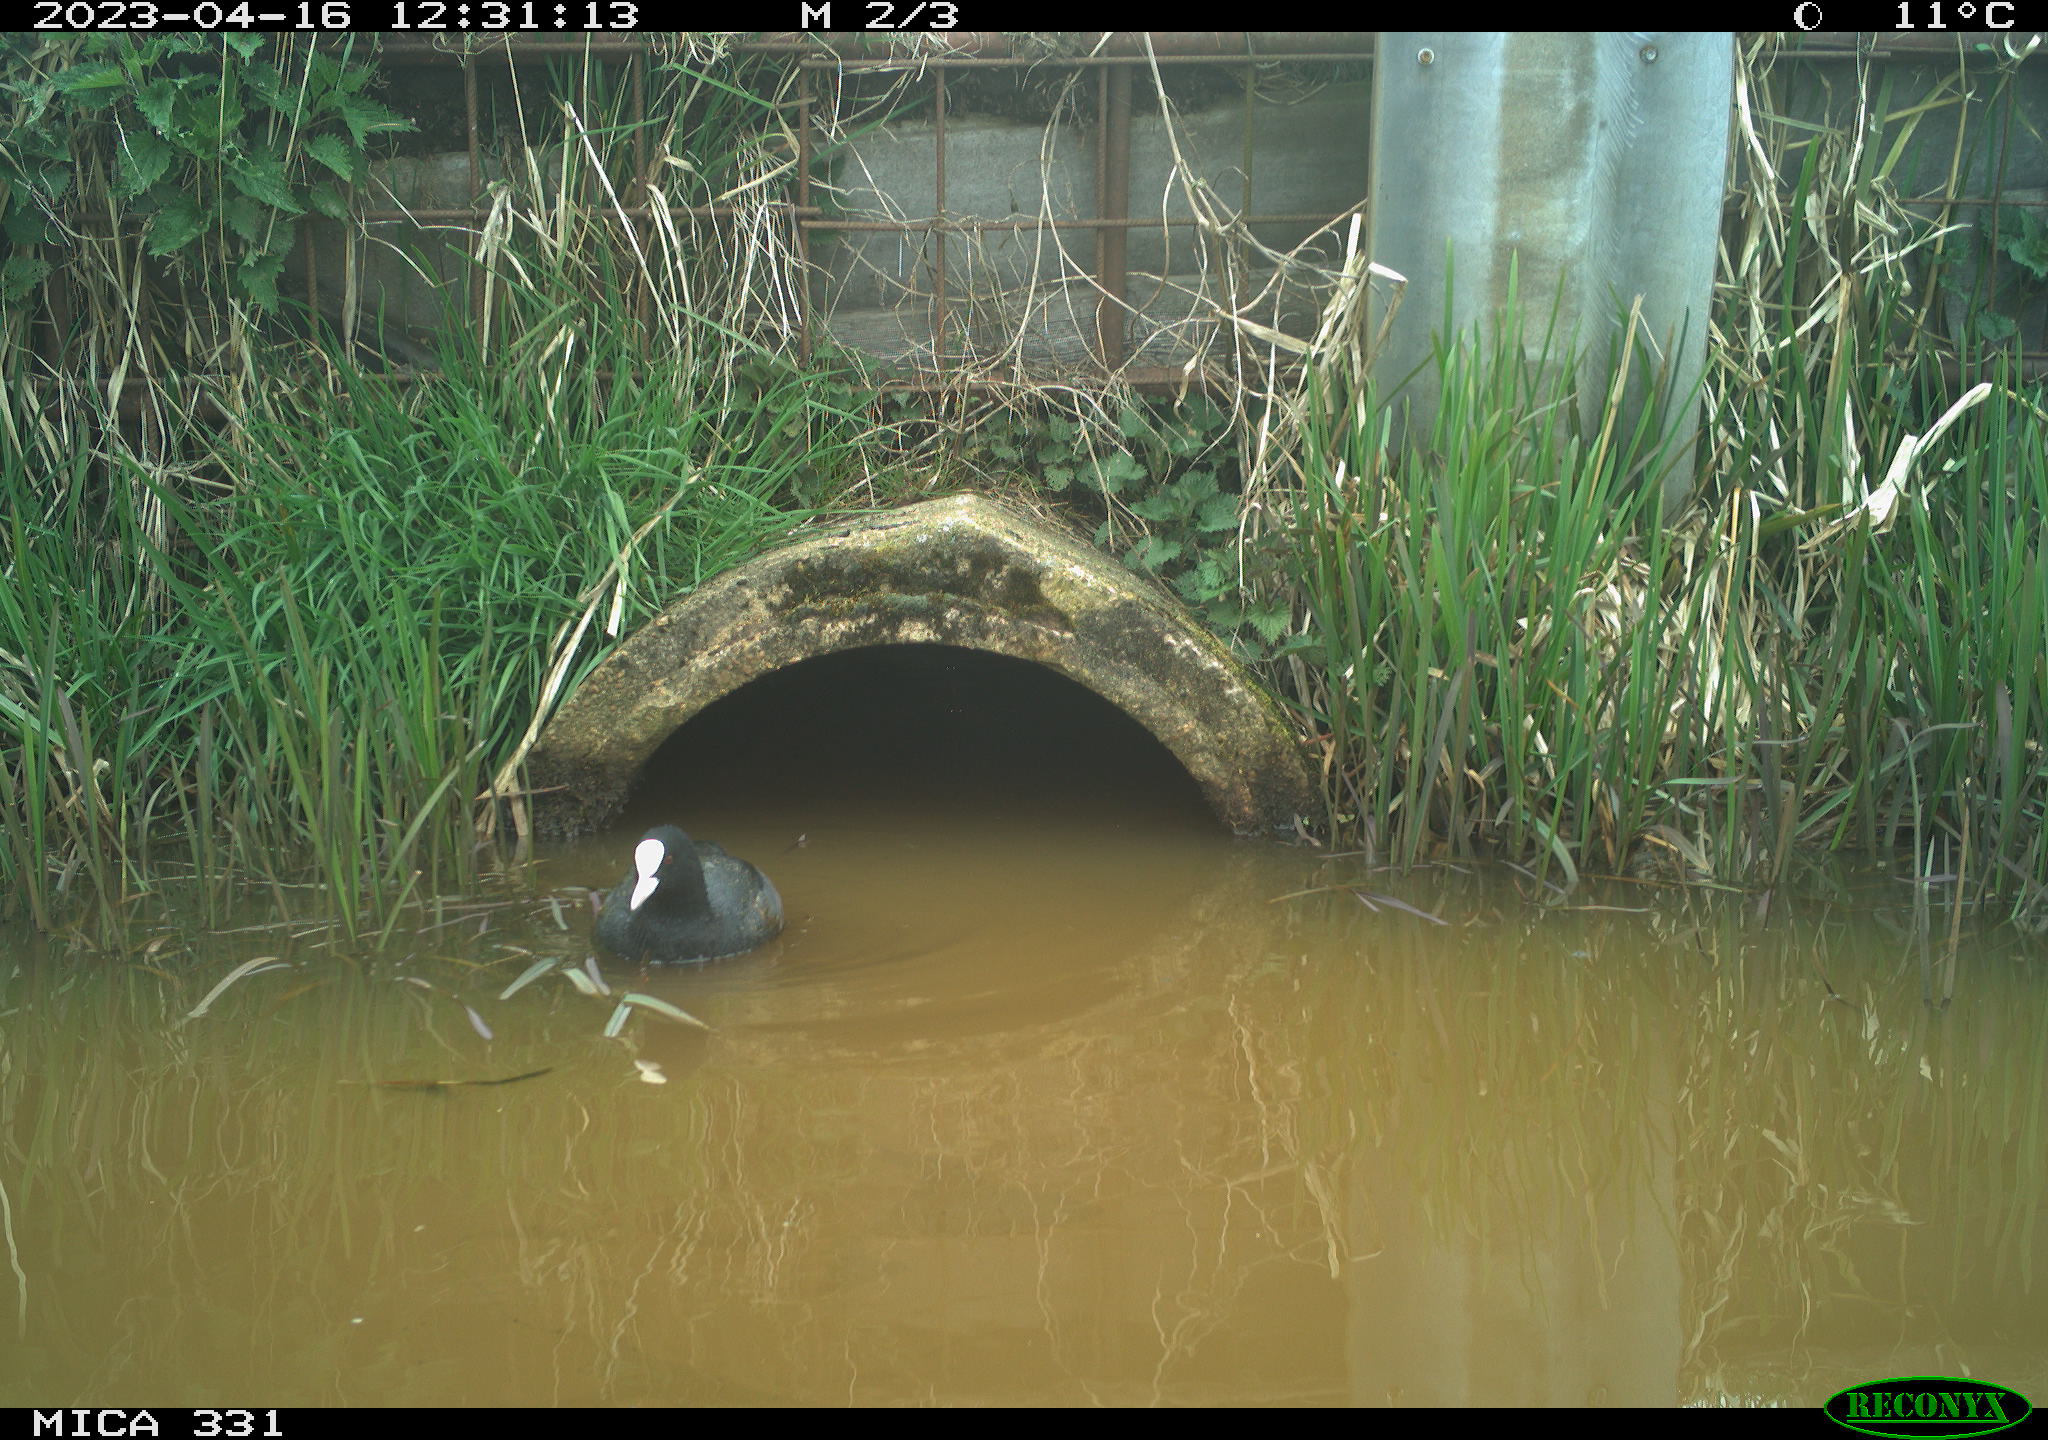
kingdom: Animalia
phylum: Chordata
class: Aves
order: Gruiformes
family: Rallidae
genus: Gallinula
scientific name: Gallinula chloropus
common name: Common moorhen
